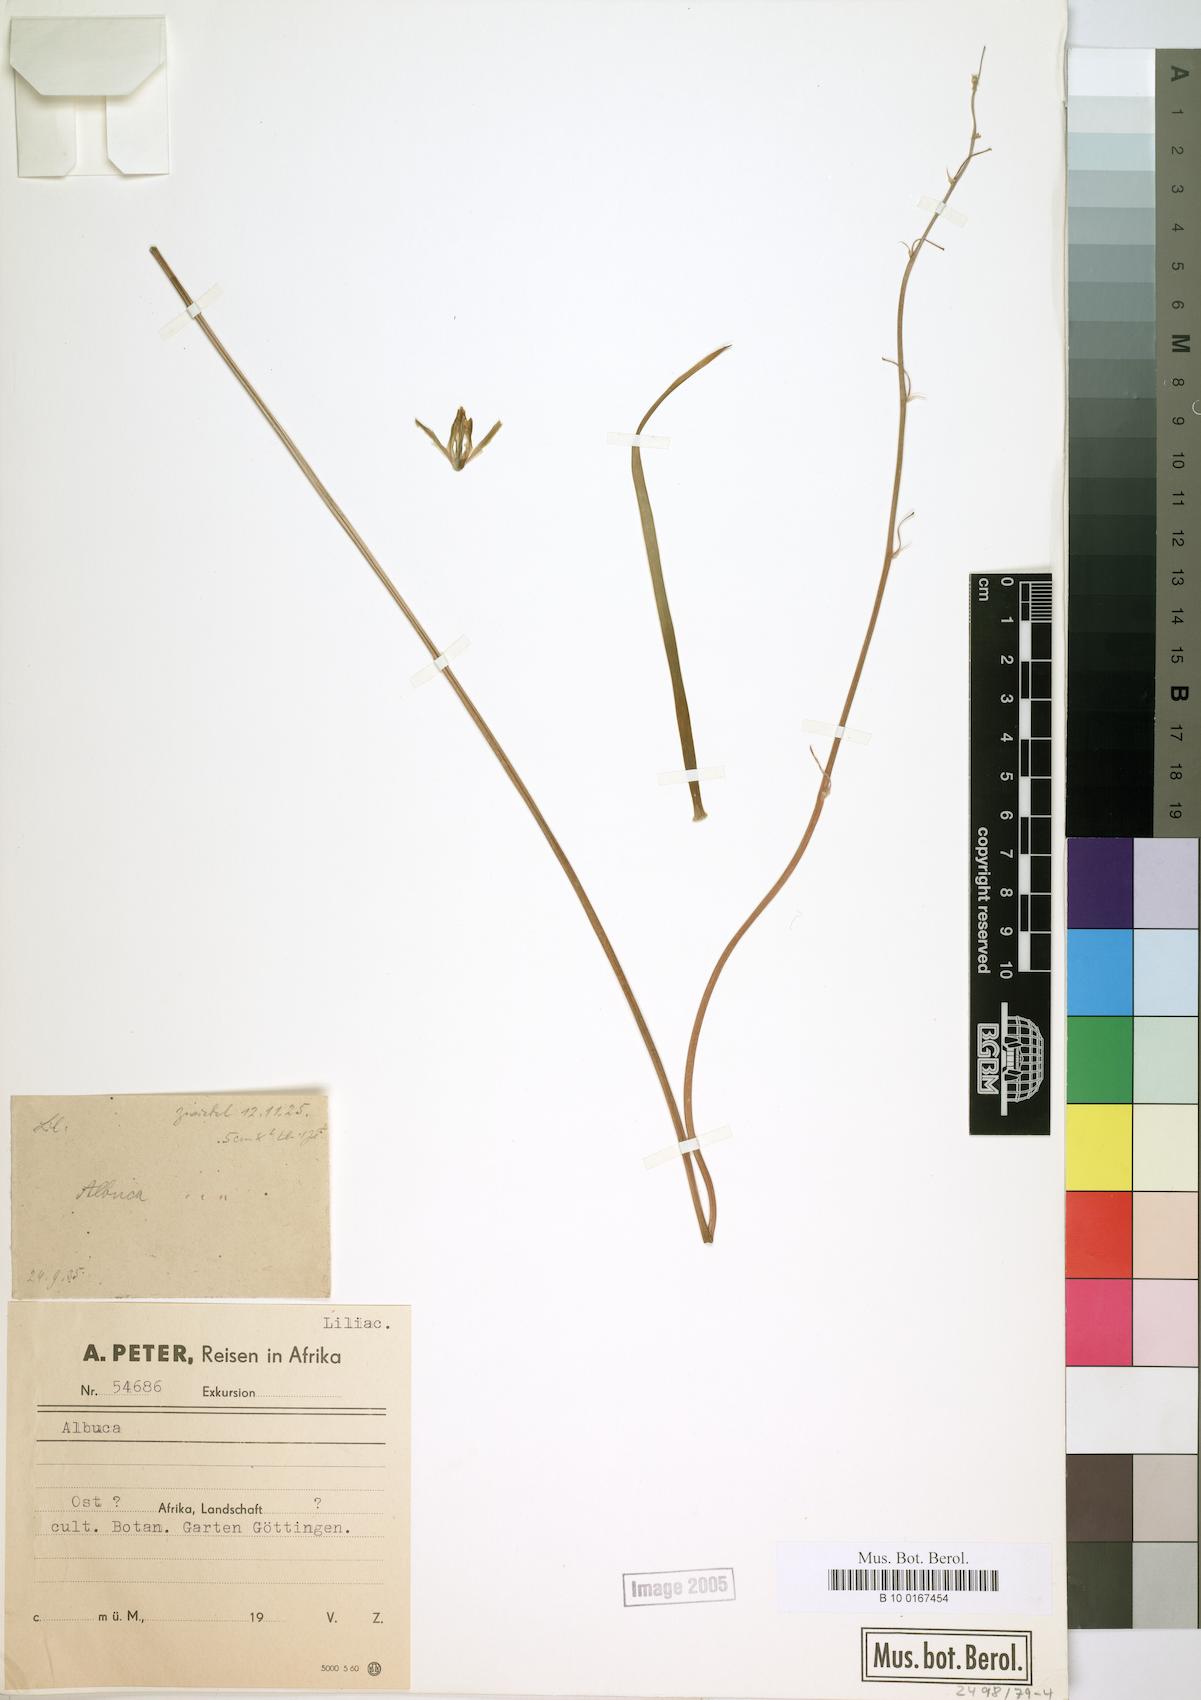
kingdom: Plantae
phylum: Tracheophyta
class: Liliopsida
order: Asparagales
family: Asparagaceae
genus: Albuca
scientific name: Albuca
